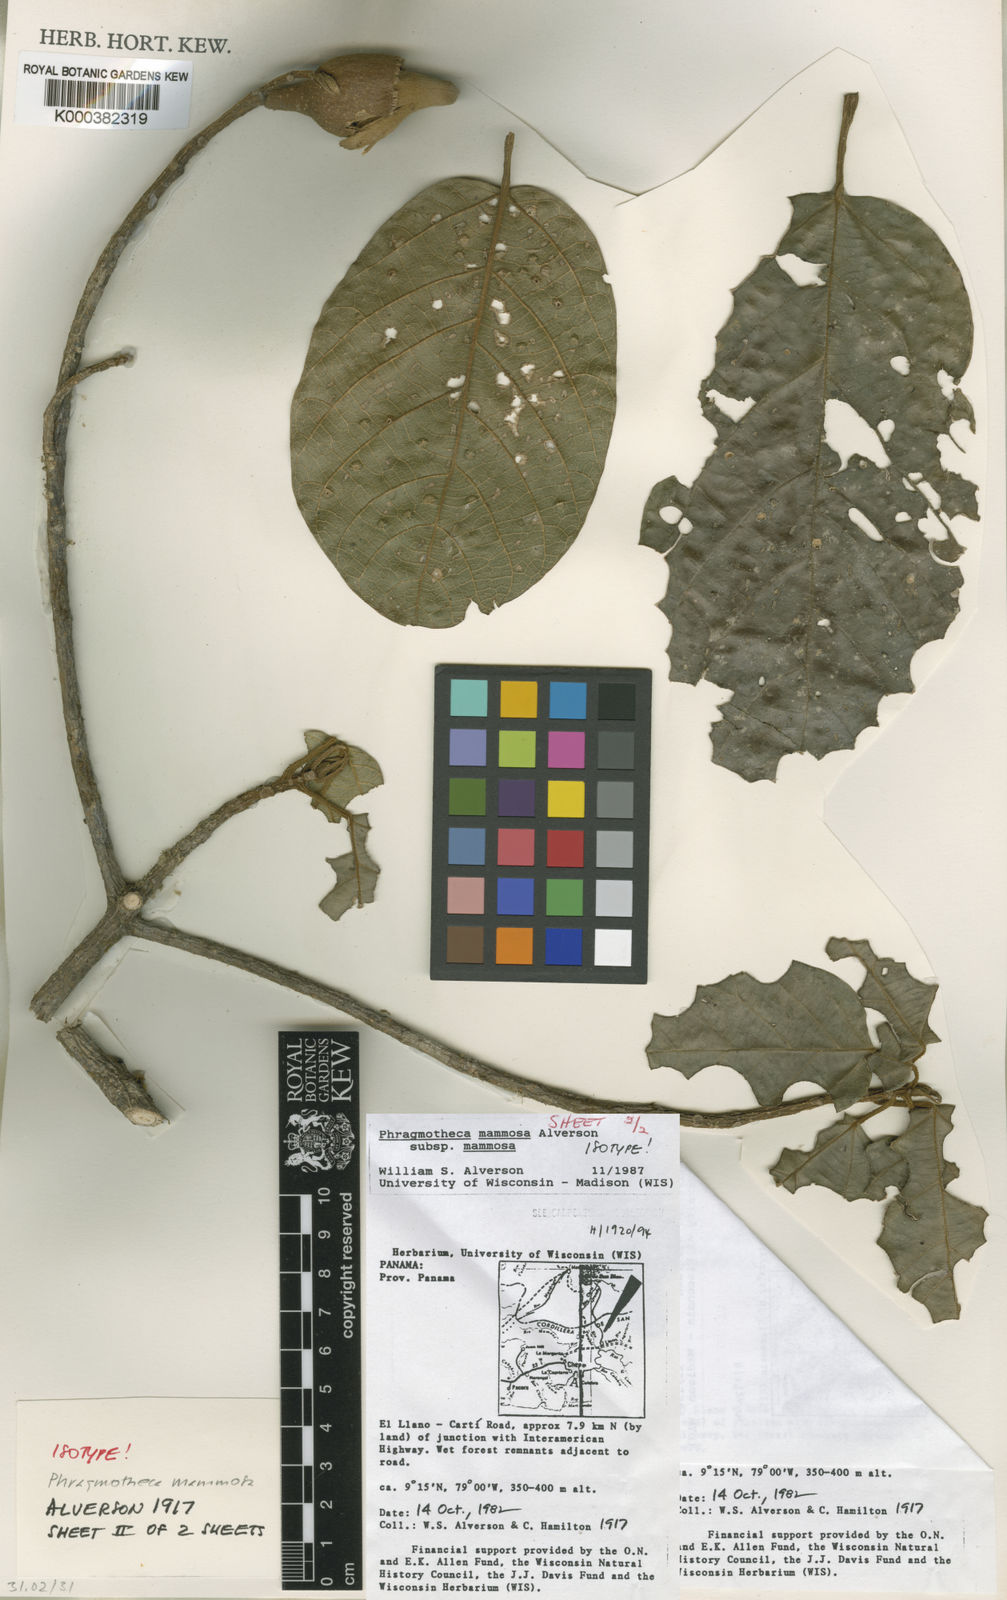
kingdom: Plantae
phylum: Tracheophyta
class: Magnoliopsida
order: Malvales
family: Malvaceae
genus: Phragmotheca
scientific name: Phragmotheca mammosa
